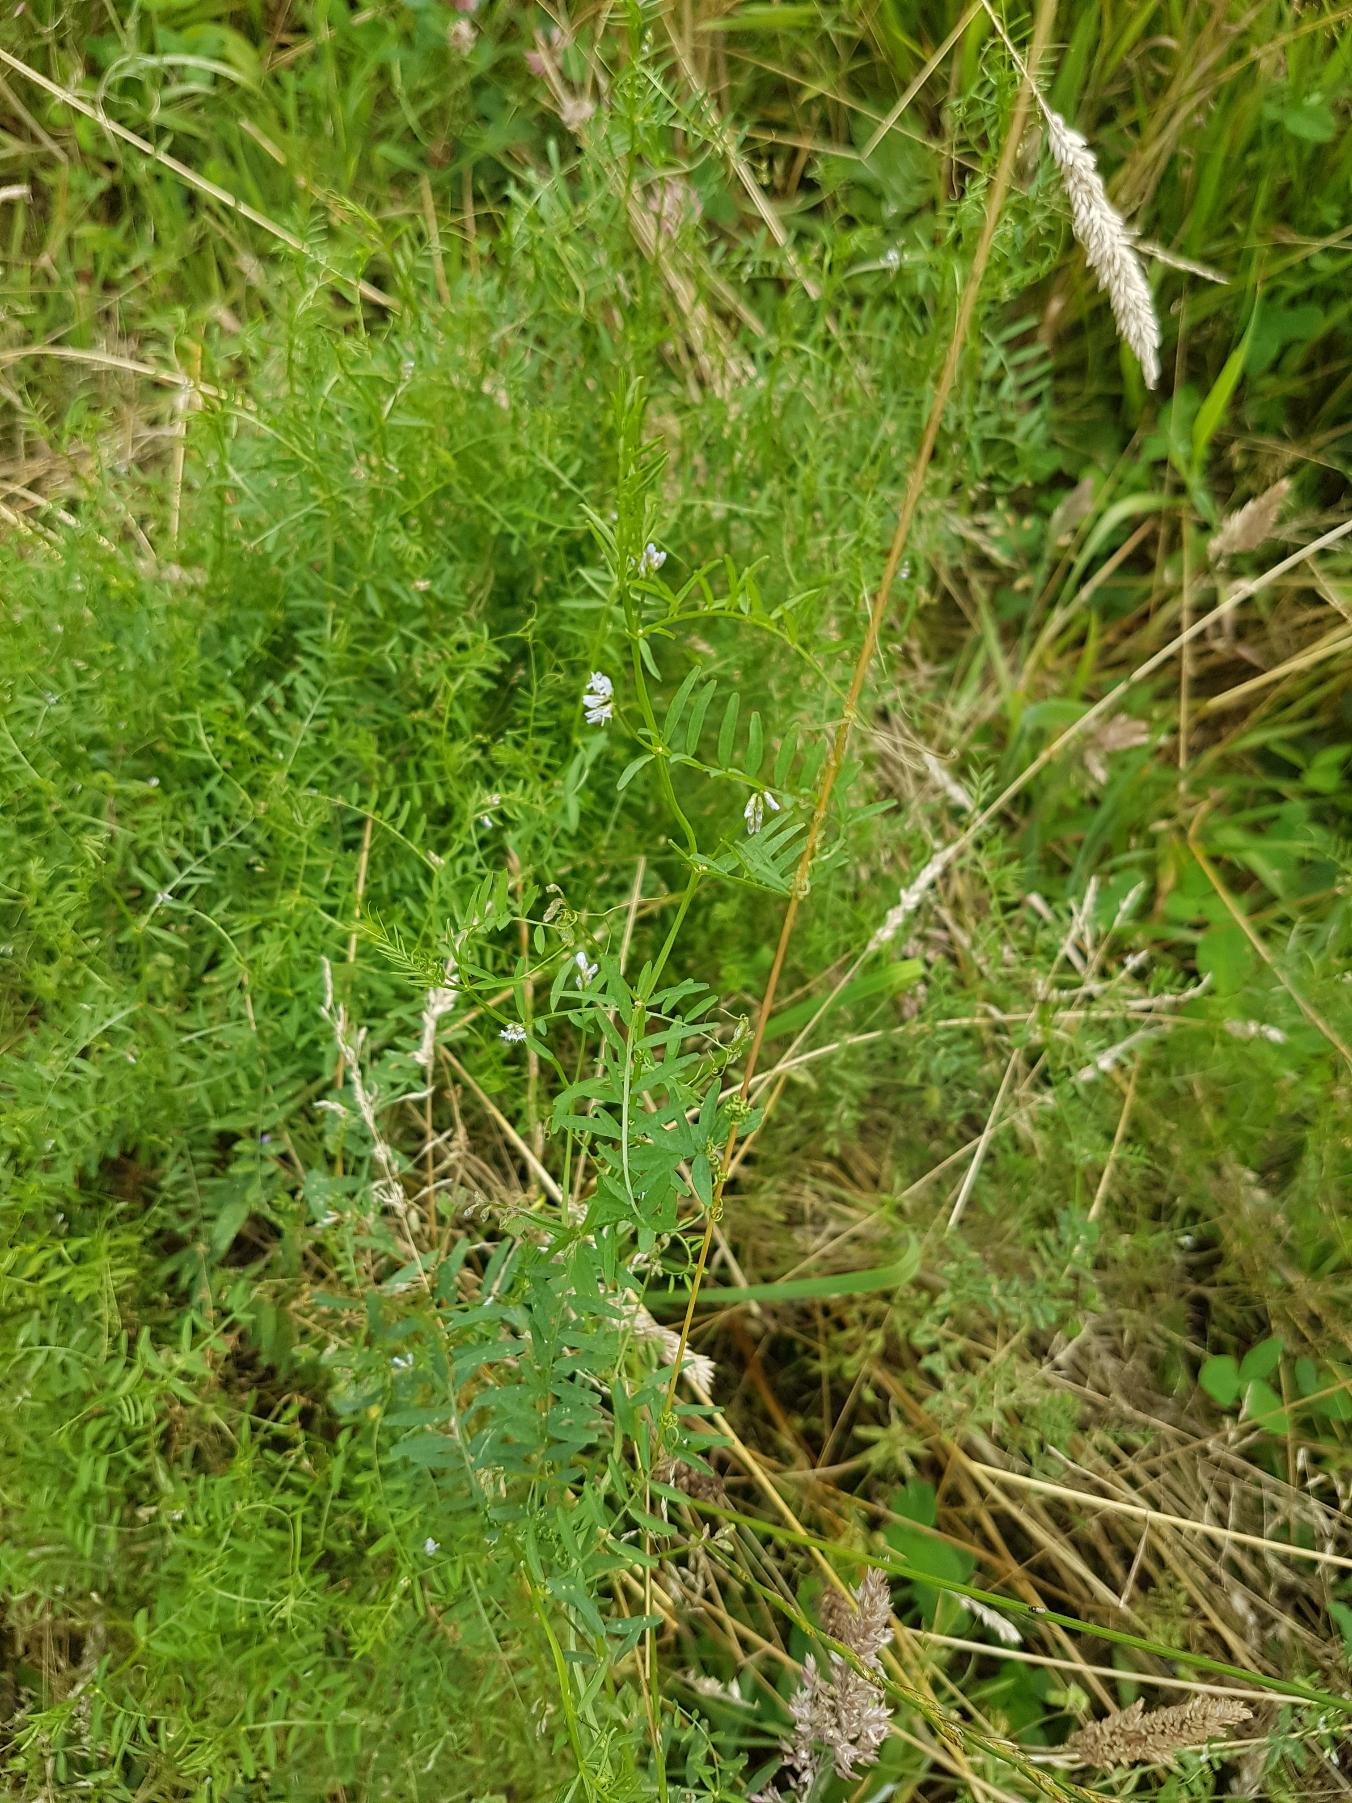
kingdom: Plantae
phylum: Tracheophyta
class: Magnoliopsida
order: Fabales
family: Fabaceae
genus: Vicia
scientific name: Vicia hirsuta
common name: Tofrøet vikke
